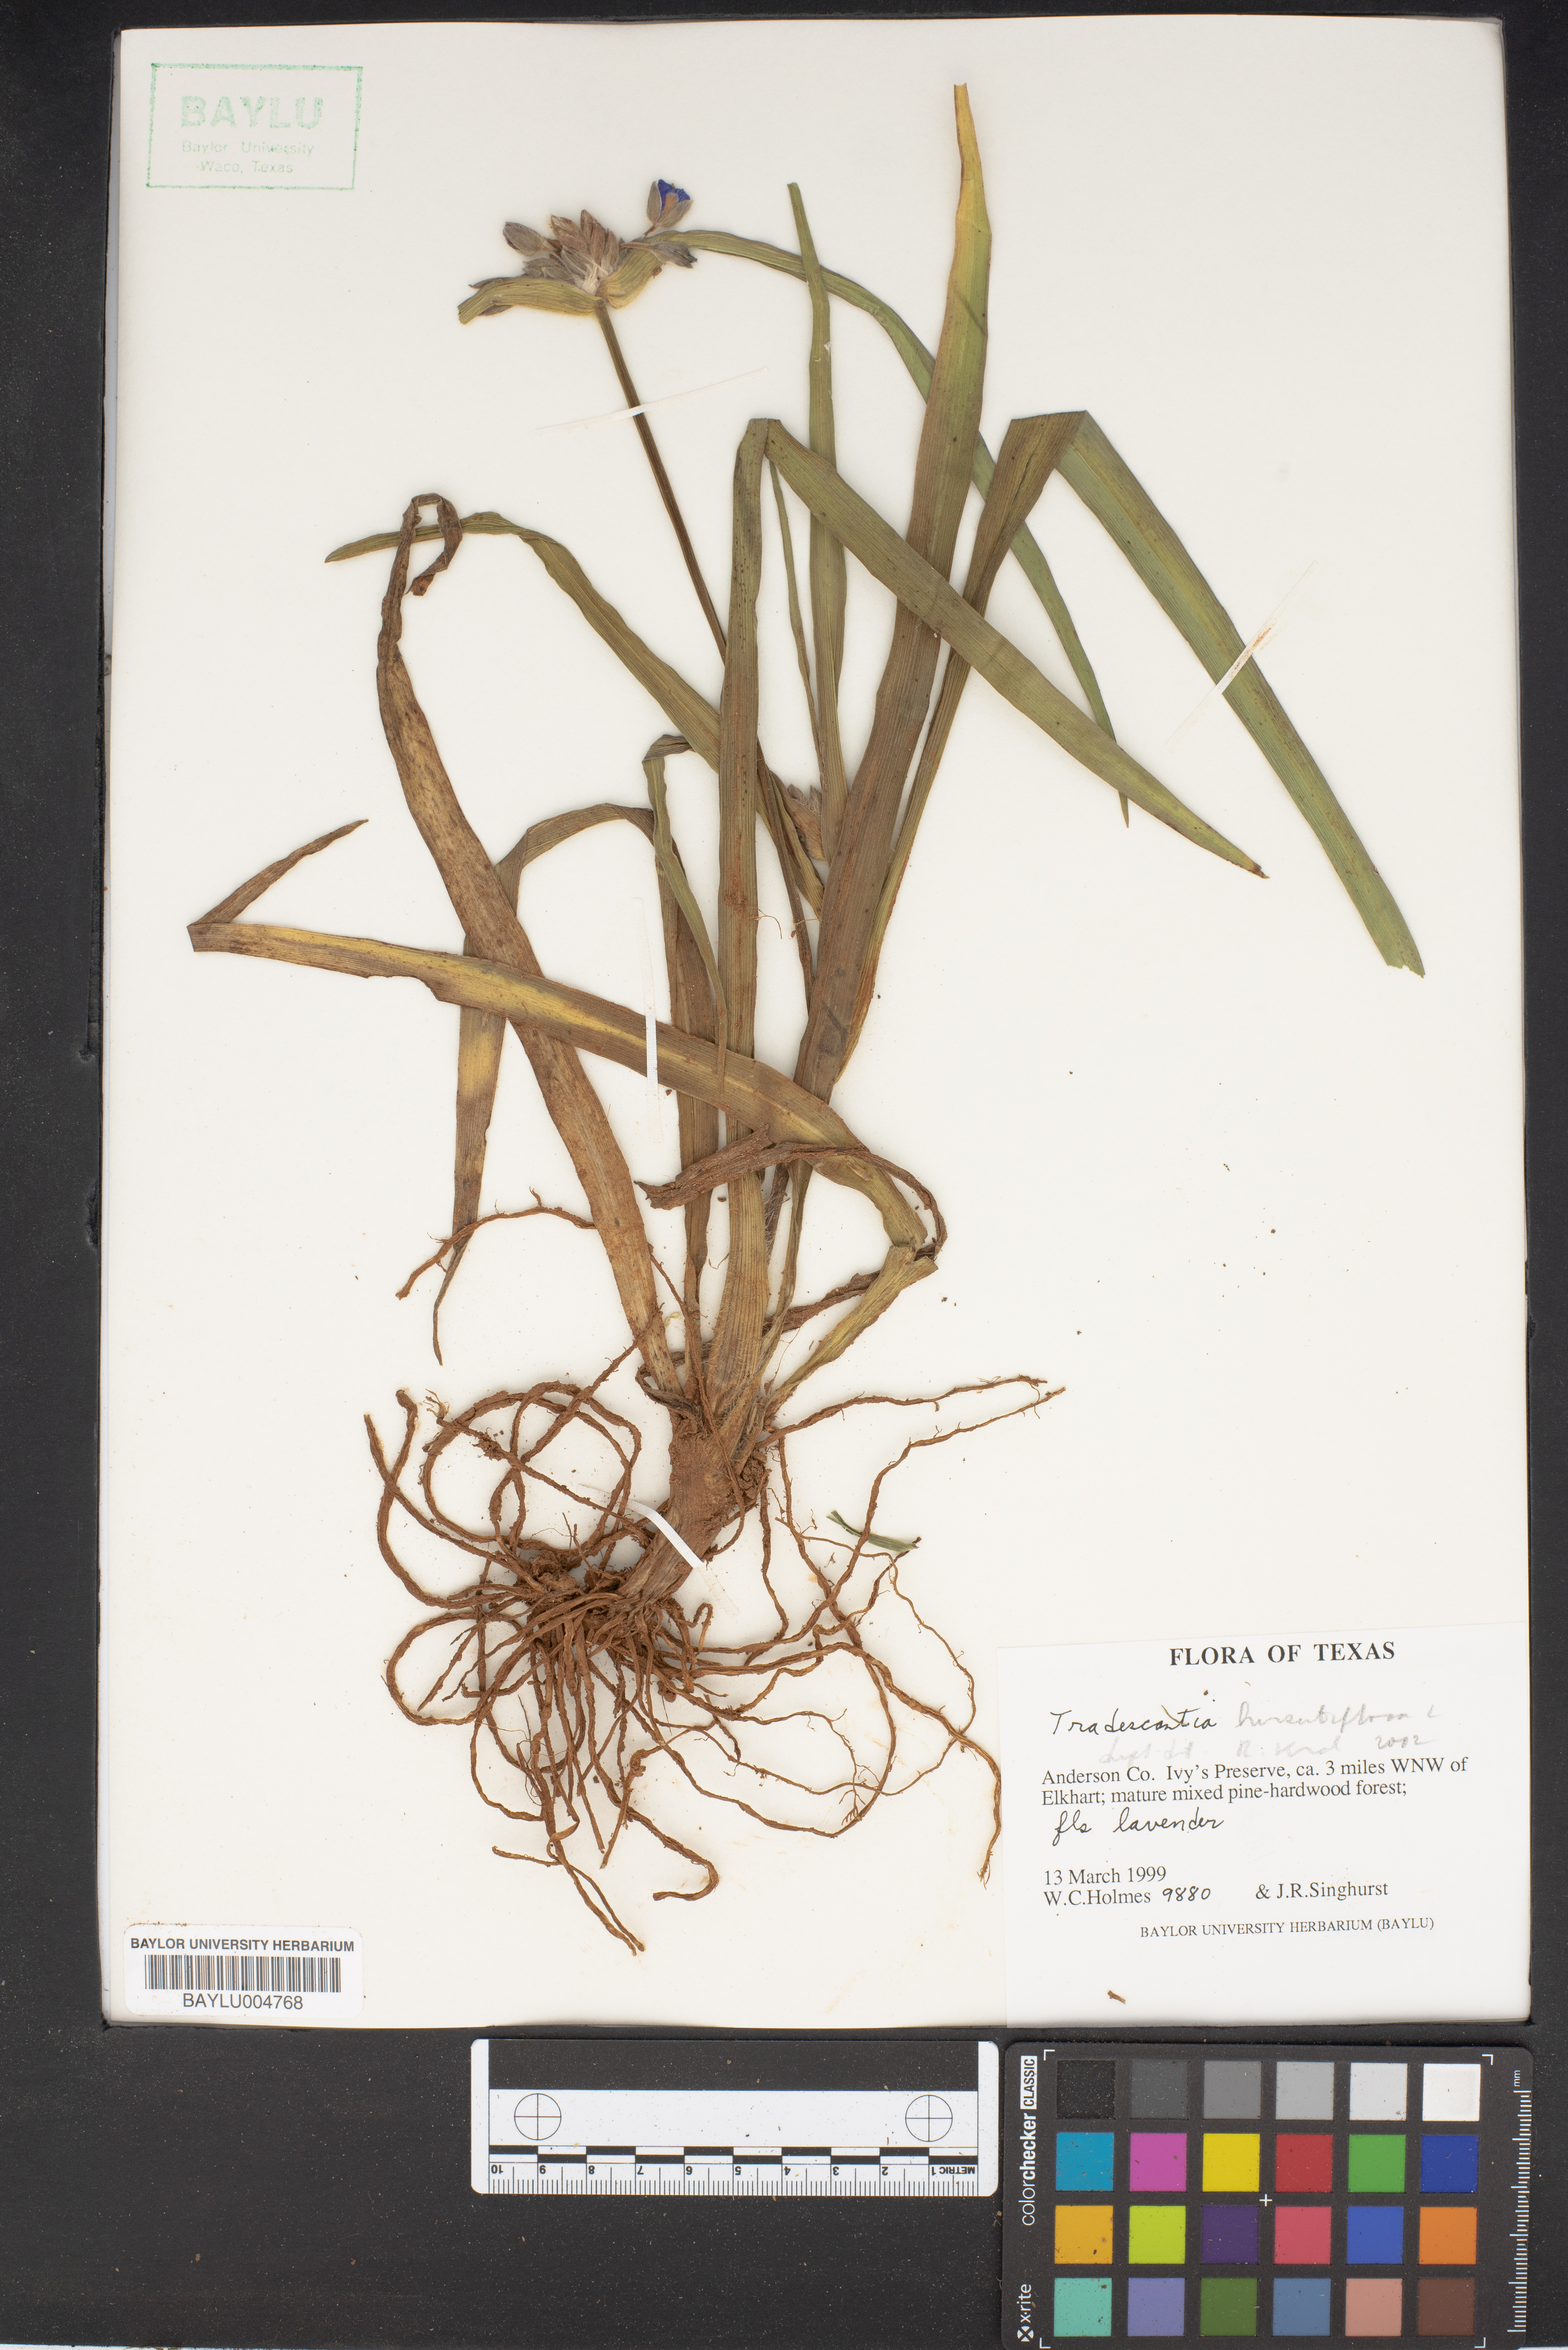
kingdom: Plantae
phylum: Tracheophyta
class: Liliopsida
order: Commelinales
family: Commelinaceae
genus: Tradescantia
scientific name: Tradescantia
